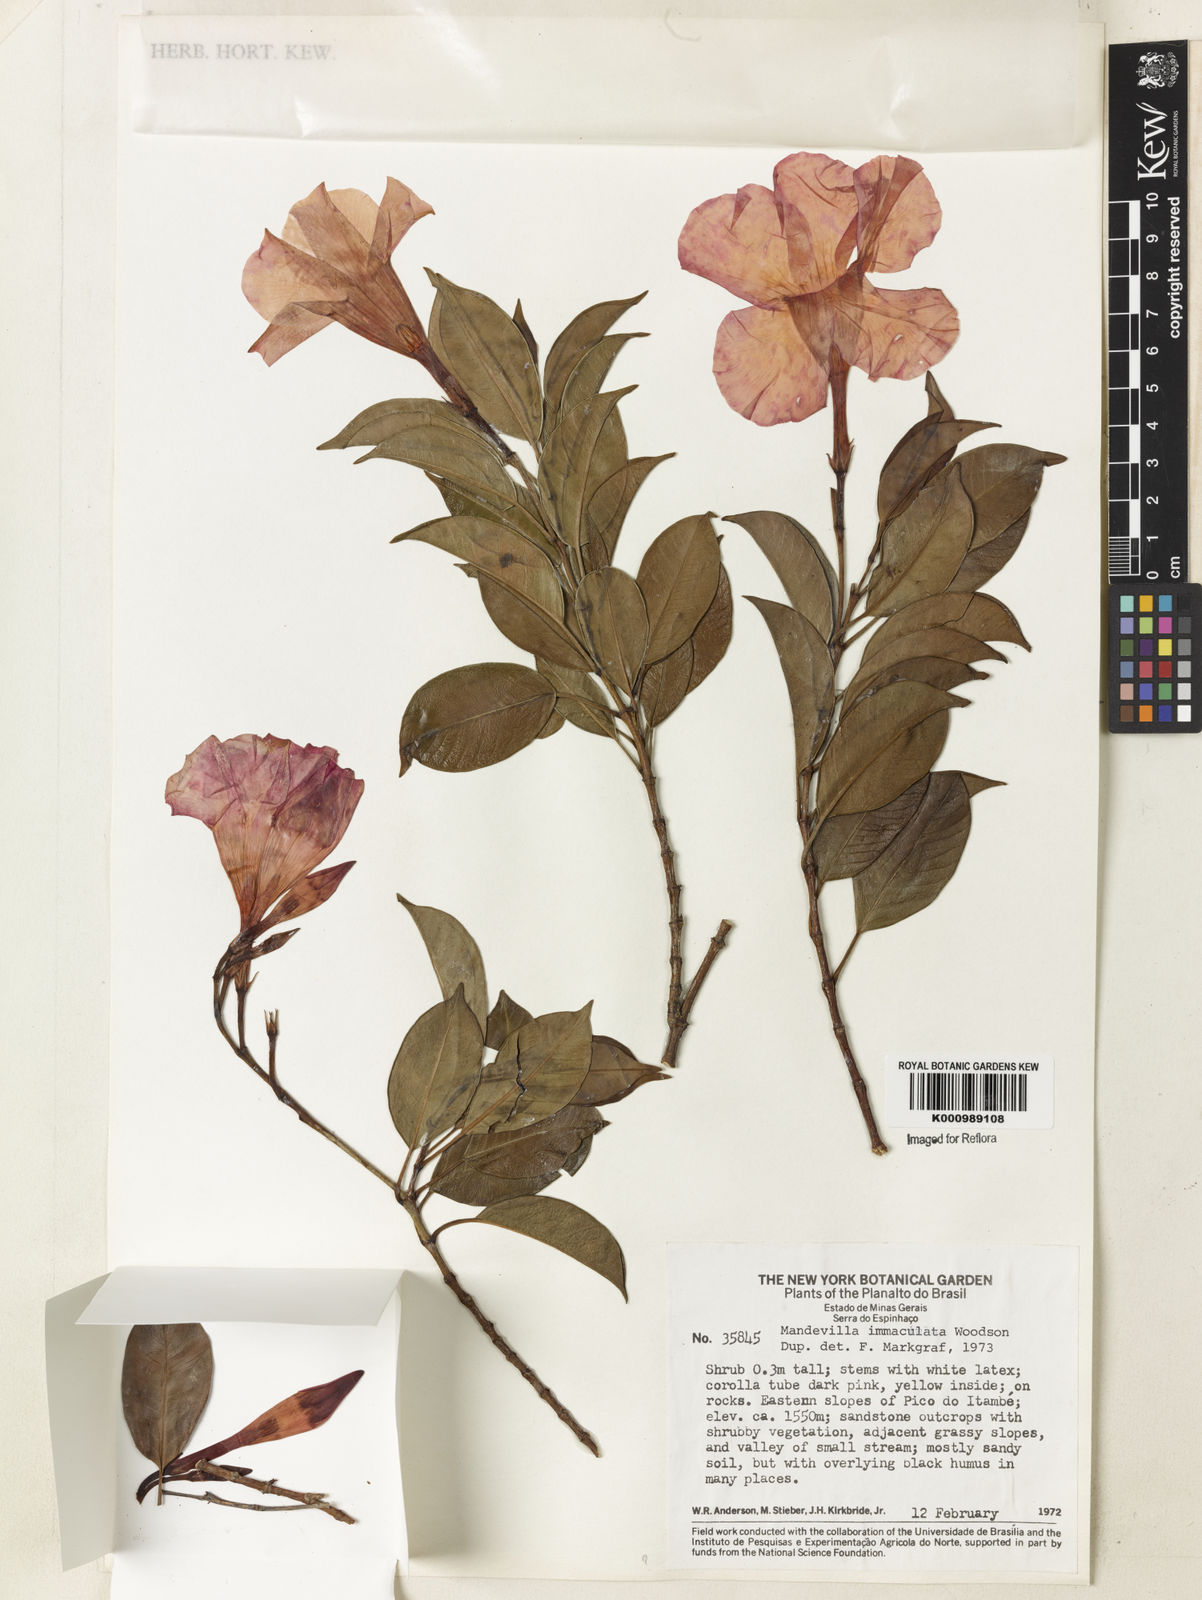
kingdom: Plantae
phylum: Tracheophyta
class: Magnoliopsida
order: Gentianales
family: Apocynaceae
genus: Mandevilla
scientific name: Mandevilla immaculata
